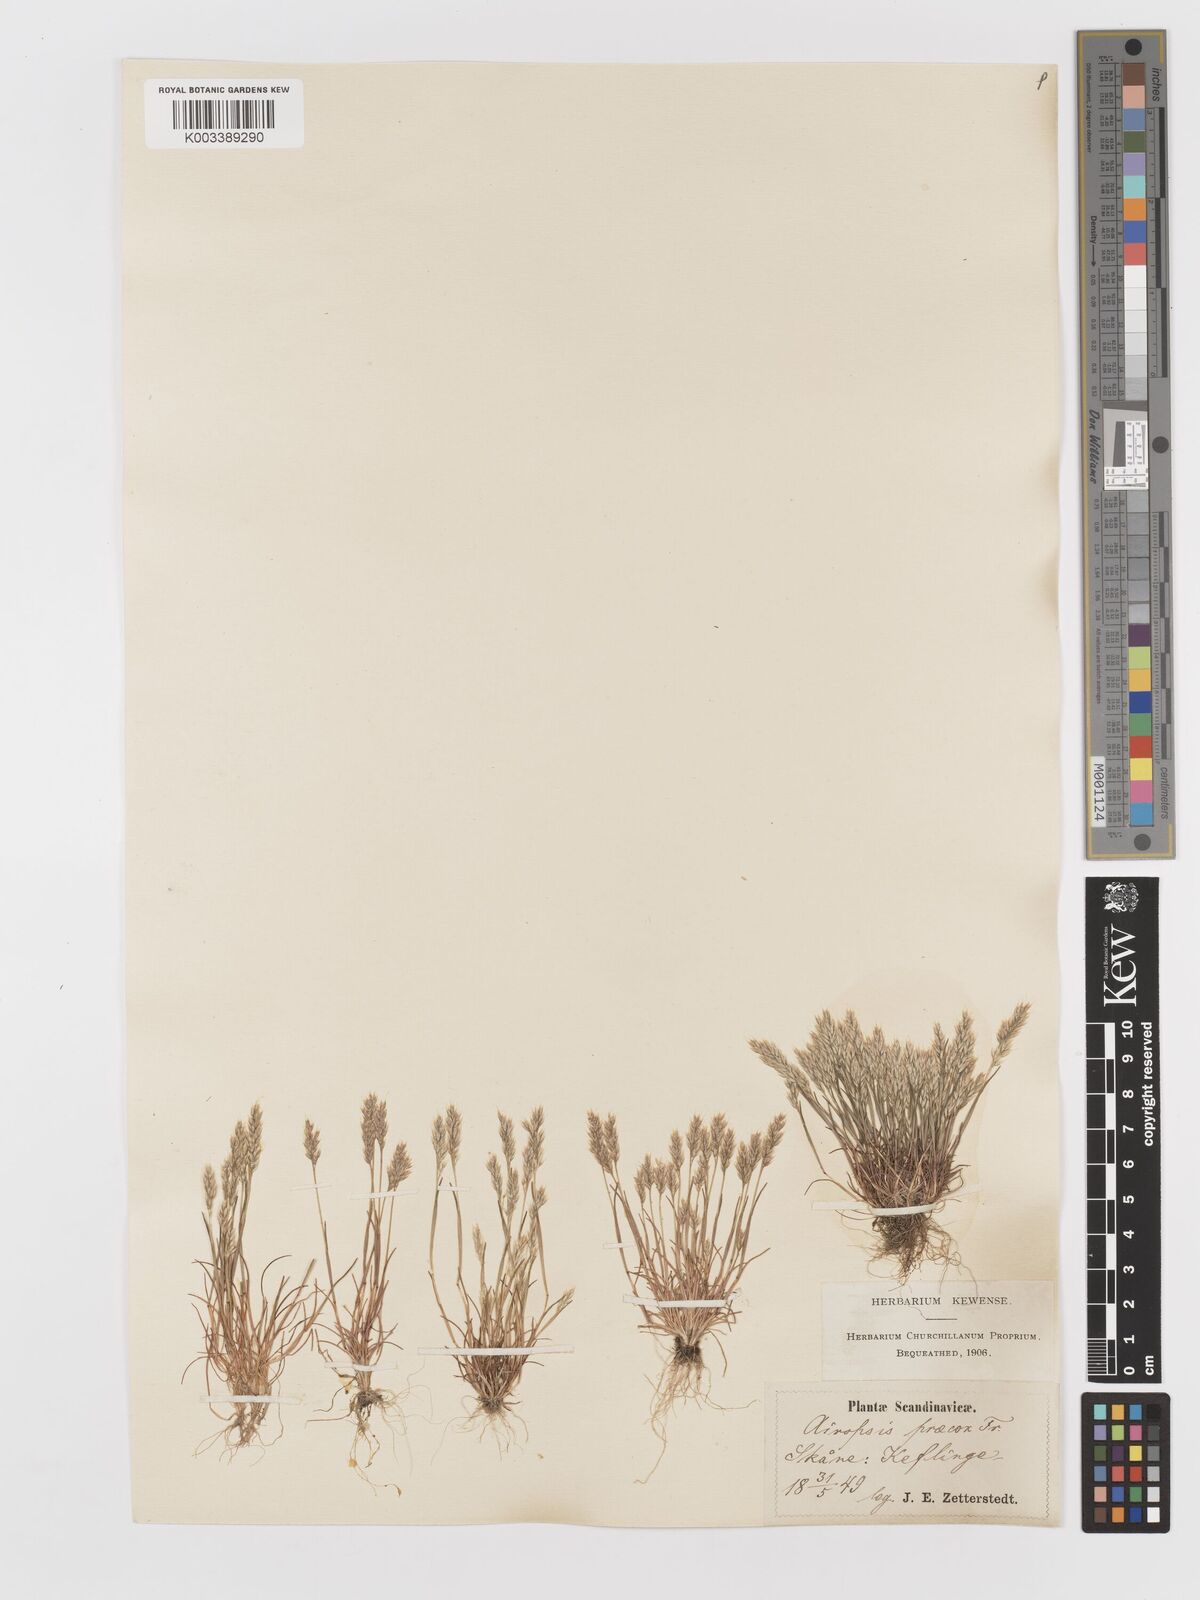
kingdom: Plantae
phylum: Tracheophyta
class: Liliopsida
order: Poales
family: Poaceae
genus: Aira
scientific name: Aira praecox
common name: Early hair-grass
